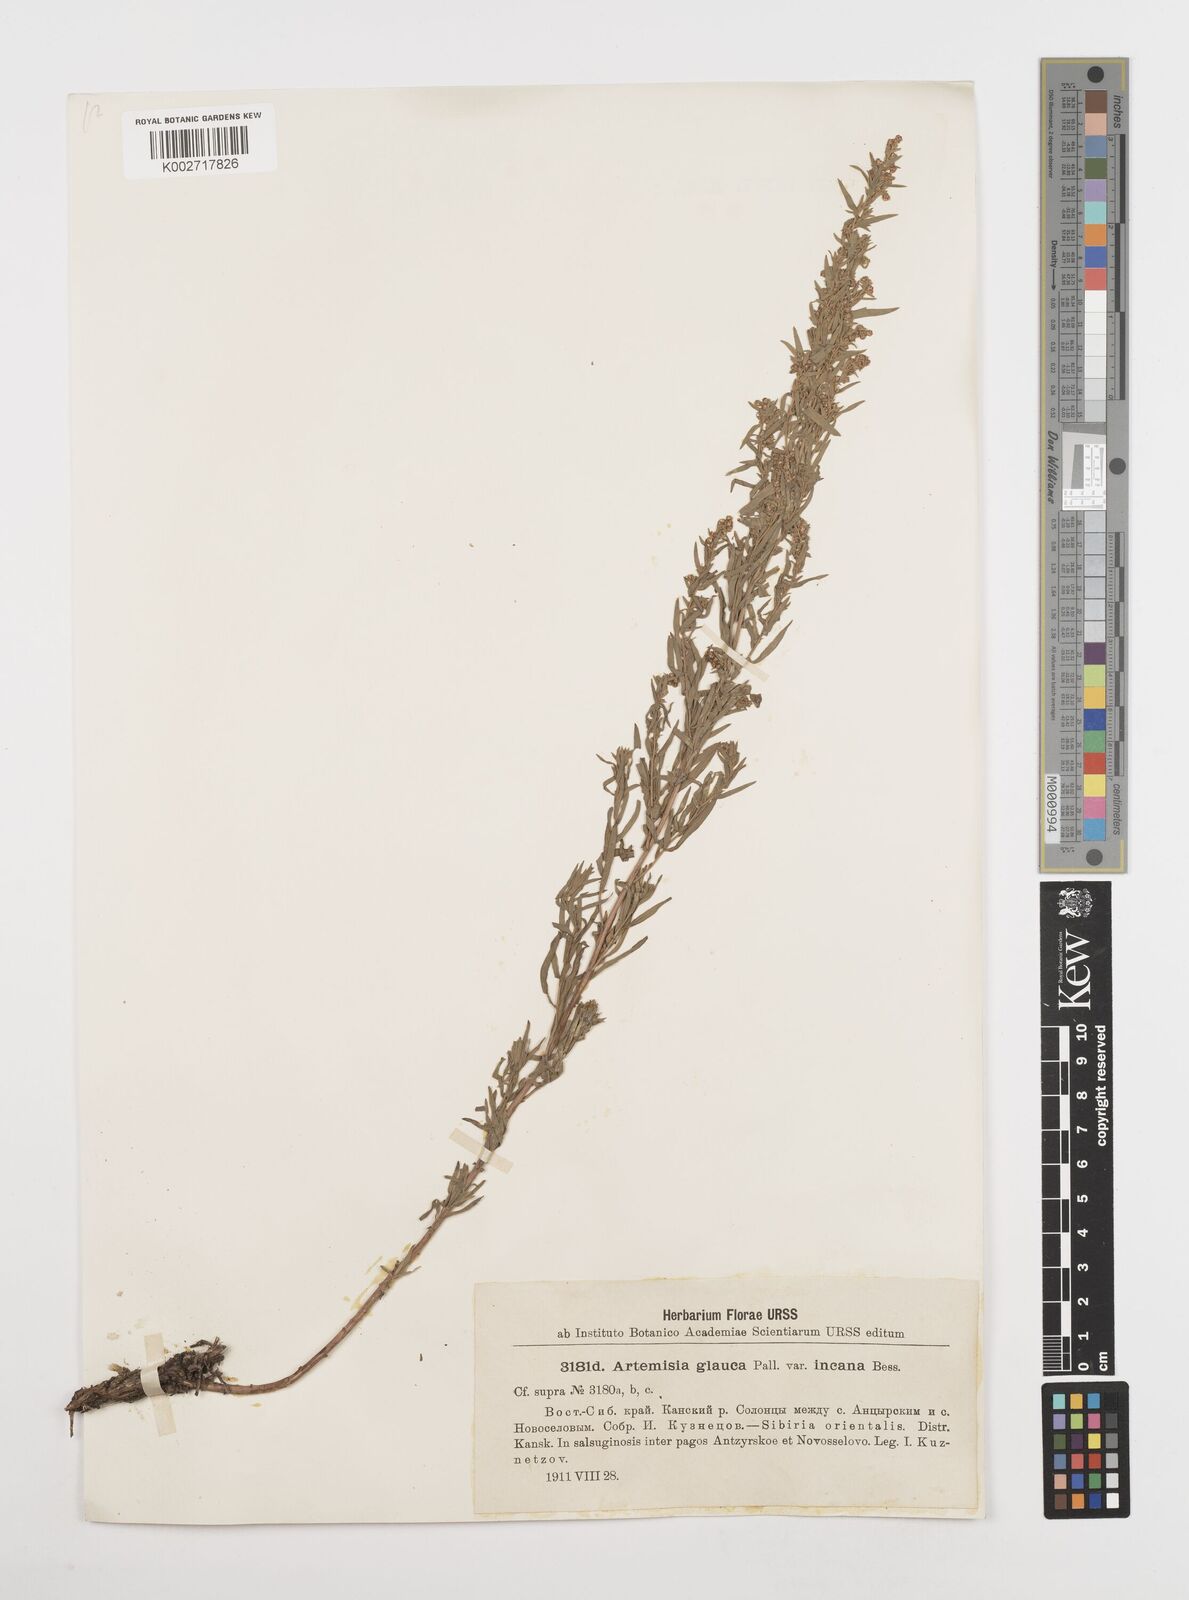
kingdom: Plantae
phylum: Tracheophyta
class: Magnoliopsida
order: Asterales
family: Asteraceae
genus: Artemisia
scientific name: Artemisia glauca
